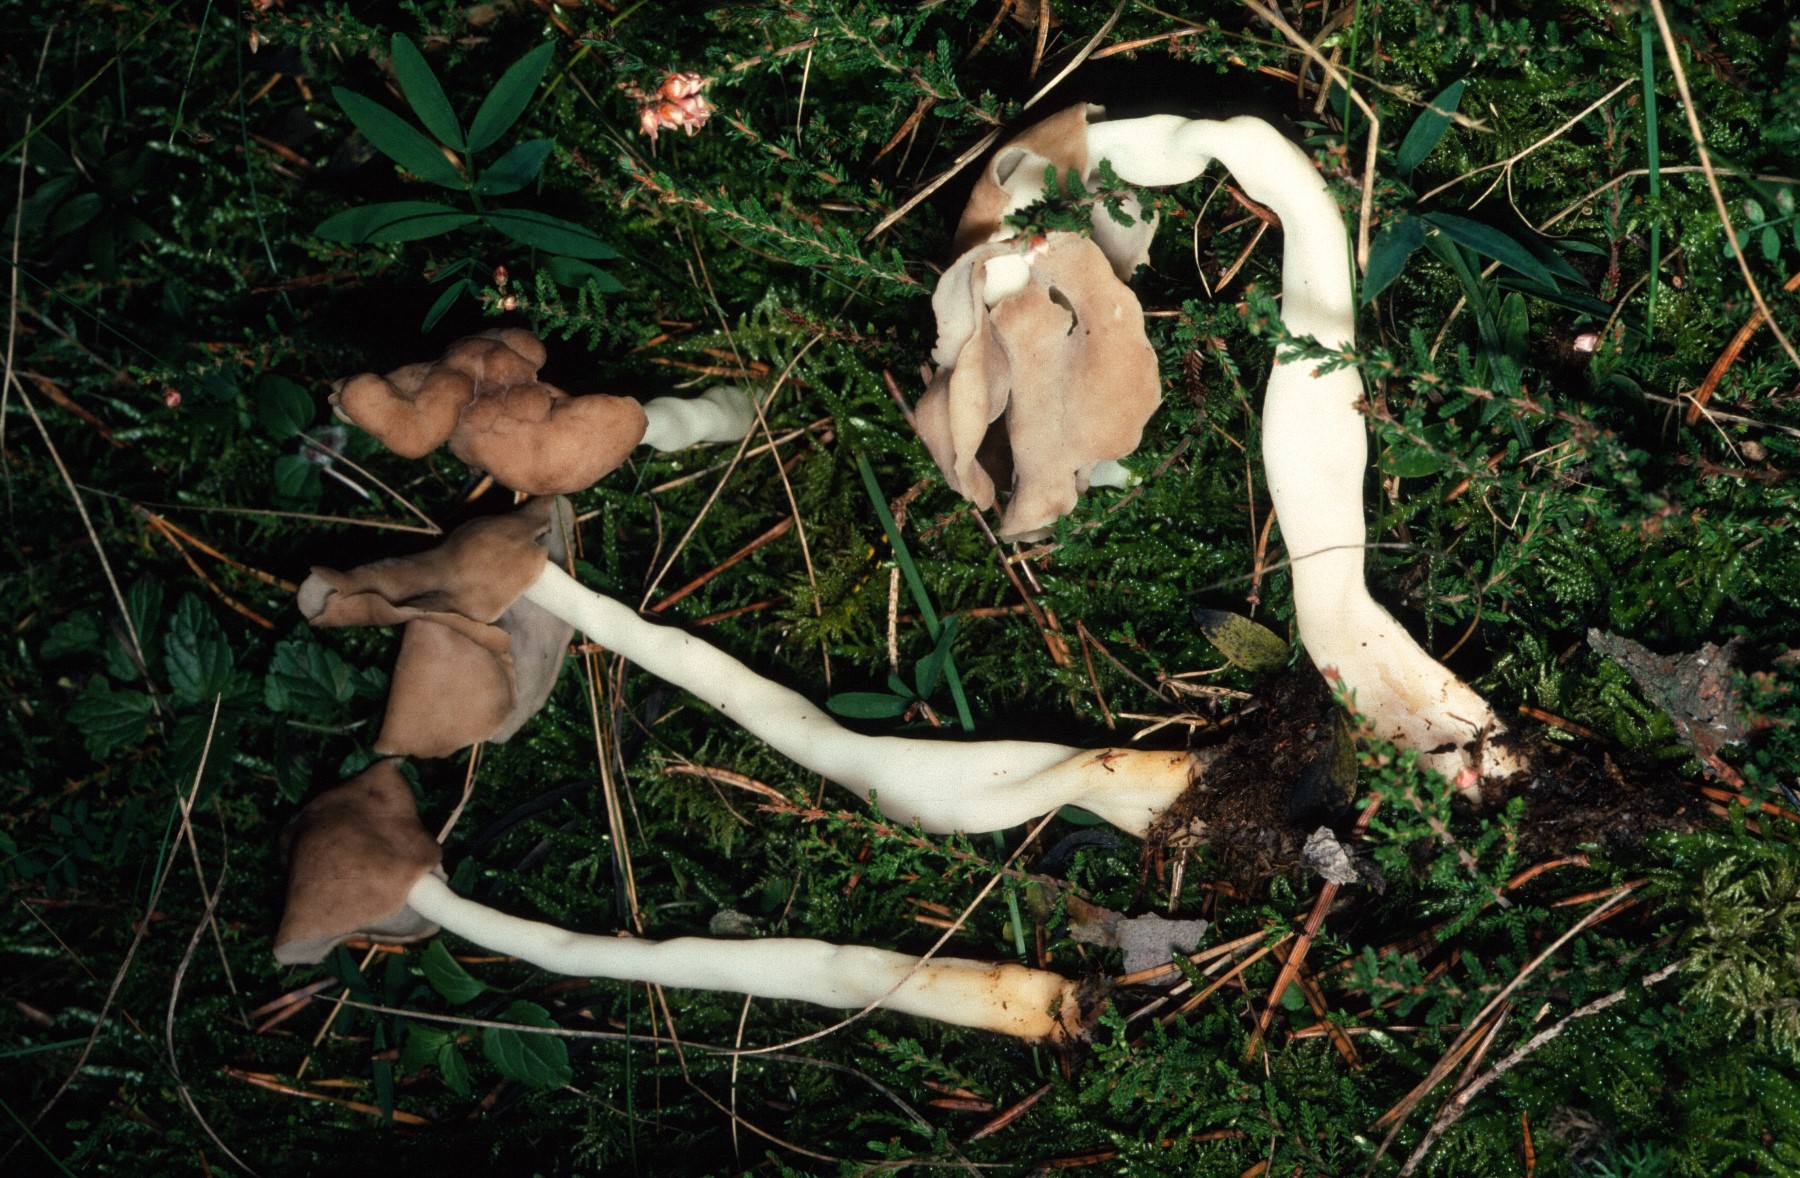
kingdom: Fungi
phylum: Ascomycota
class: Pezizomycetes
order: Pezizales
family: Helvellaceae
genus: Helvella
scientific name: Helvella elastica
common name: elastik-foldhat
